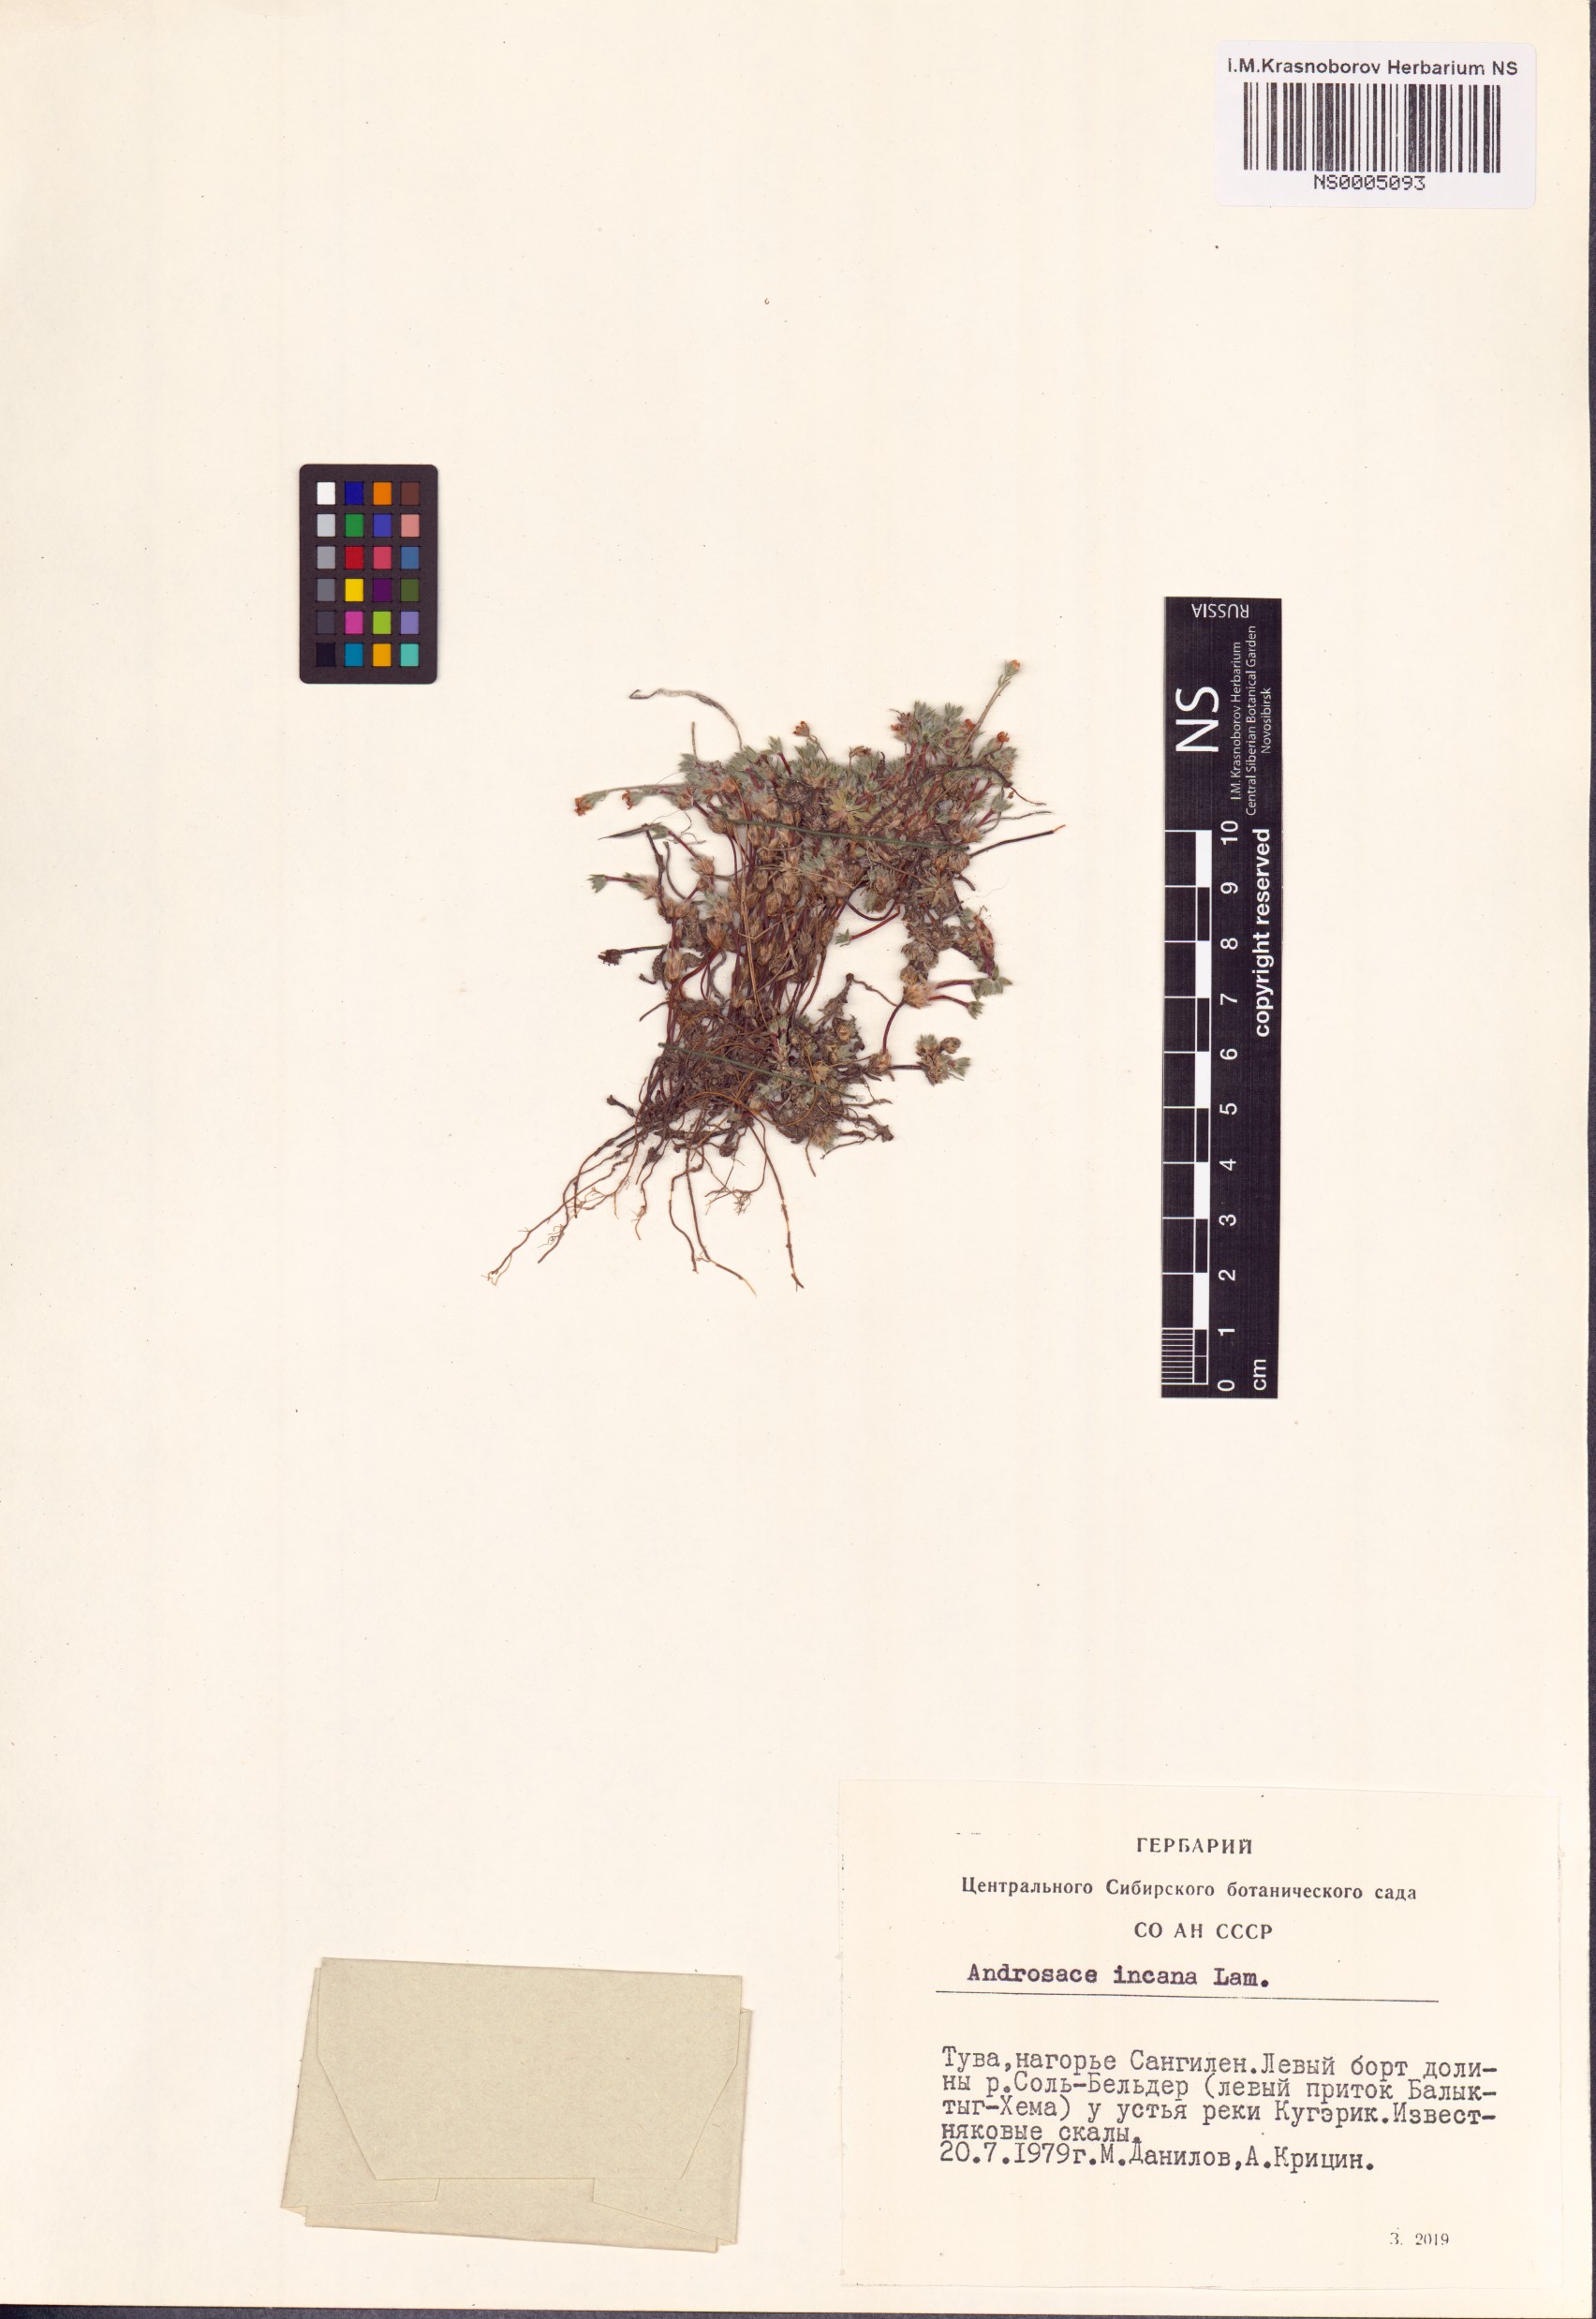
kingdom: Plantae
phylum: Tracheophyta
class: Magnoliopsida
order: Ericales
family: Primulaceae
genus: Androsace
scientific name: Androsace incana
